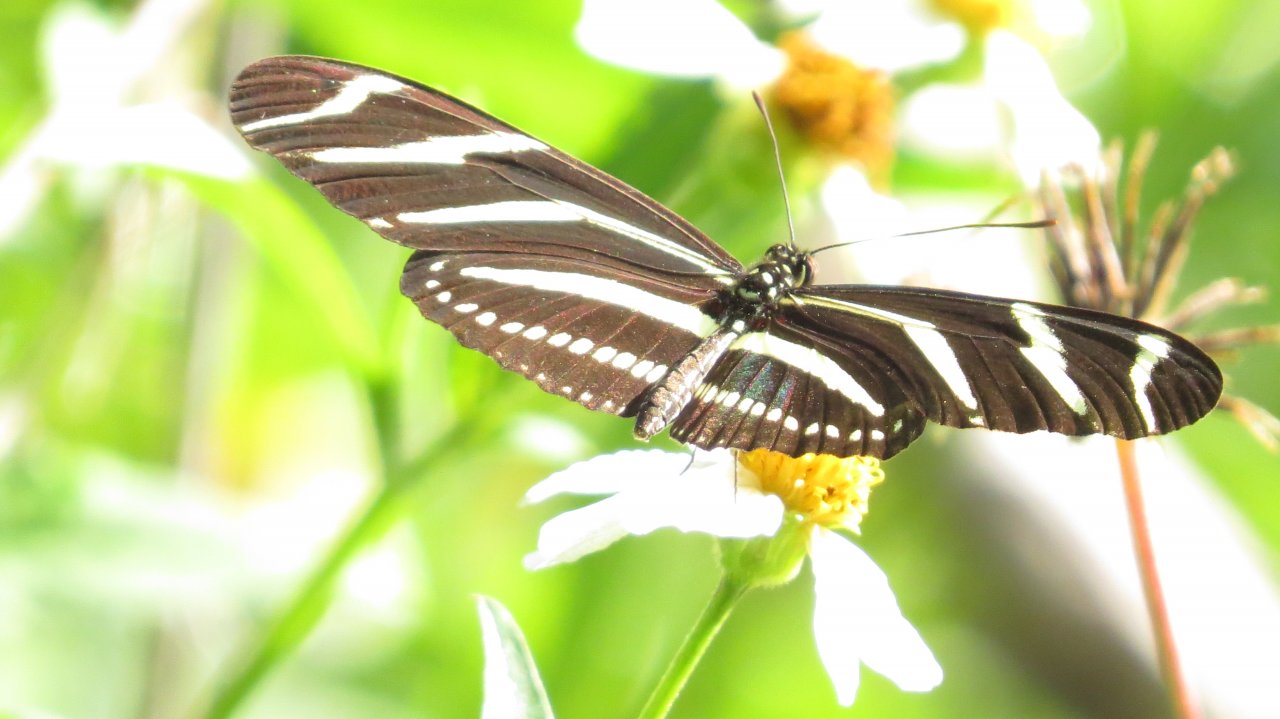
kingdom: Animalia
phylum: Arthropoda
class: Insecta
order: Lepidoptera
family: Nymphalidae
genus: Heliconius
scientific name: Heliconius charithonia
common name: Zebra Longwing
